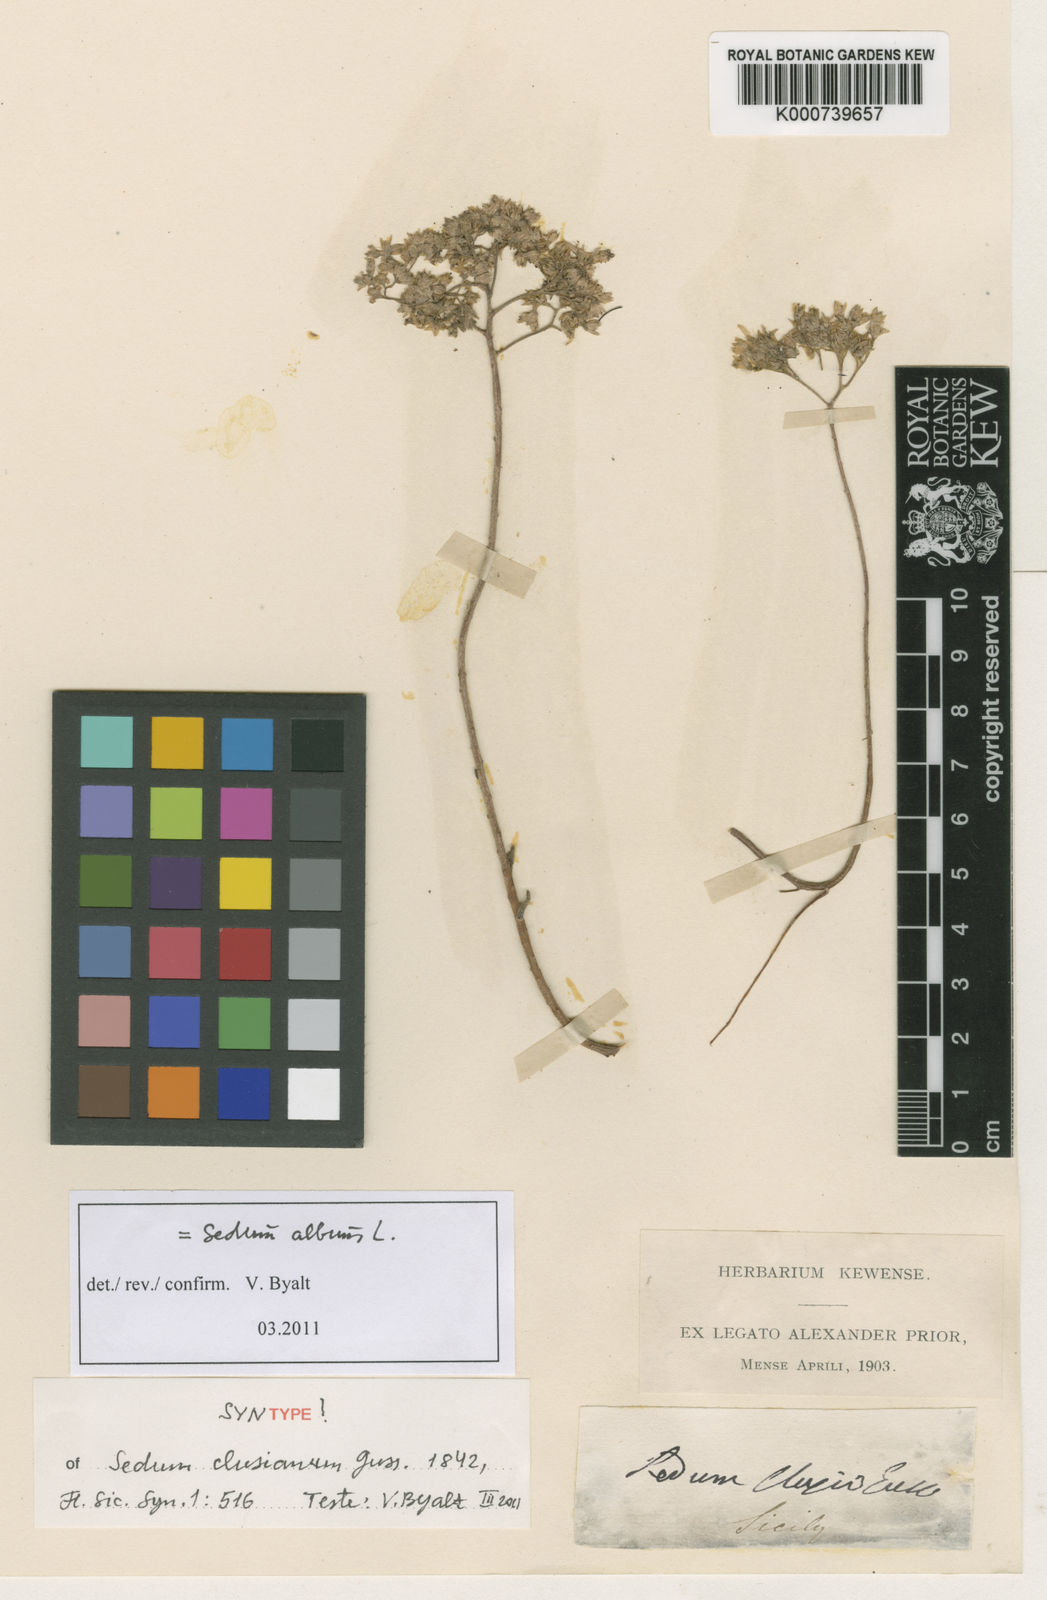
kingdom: Plantae
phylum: Tracheophyta
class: Magnoliopsida
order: Saxifragales
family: Crassulaceae
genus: Sedum
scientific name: Sedum album
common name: White stonecrop
